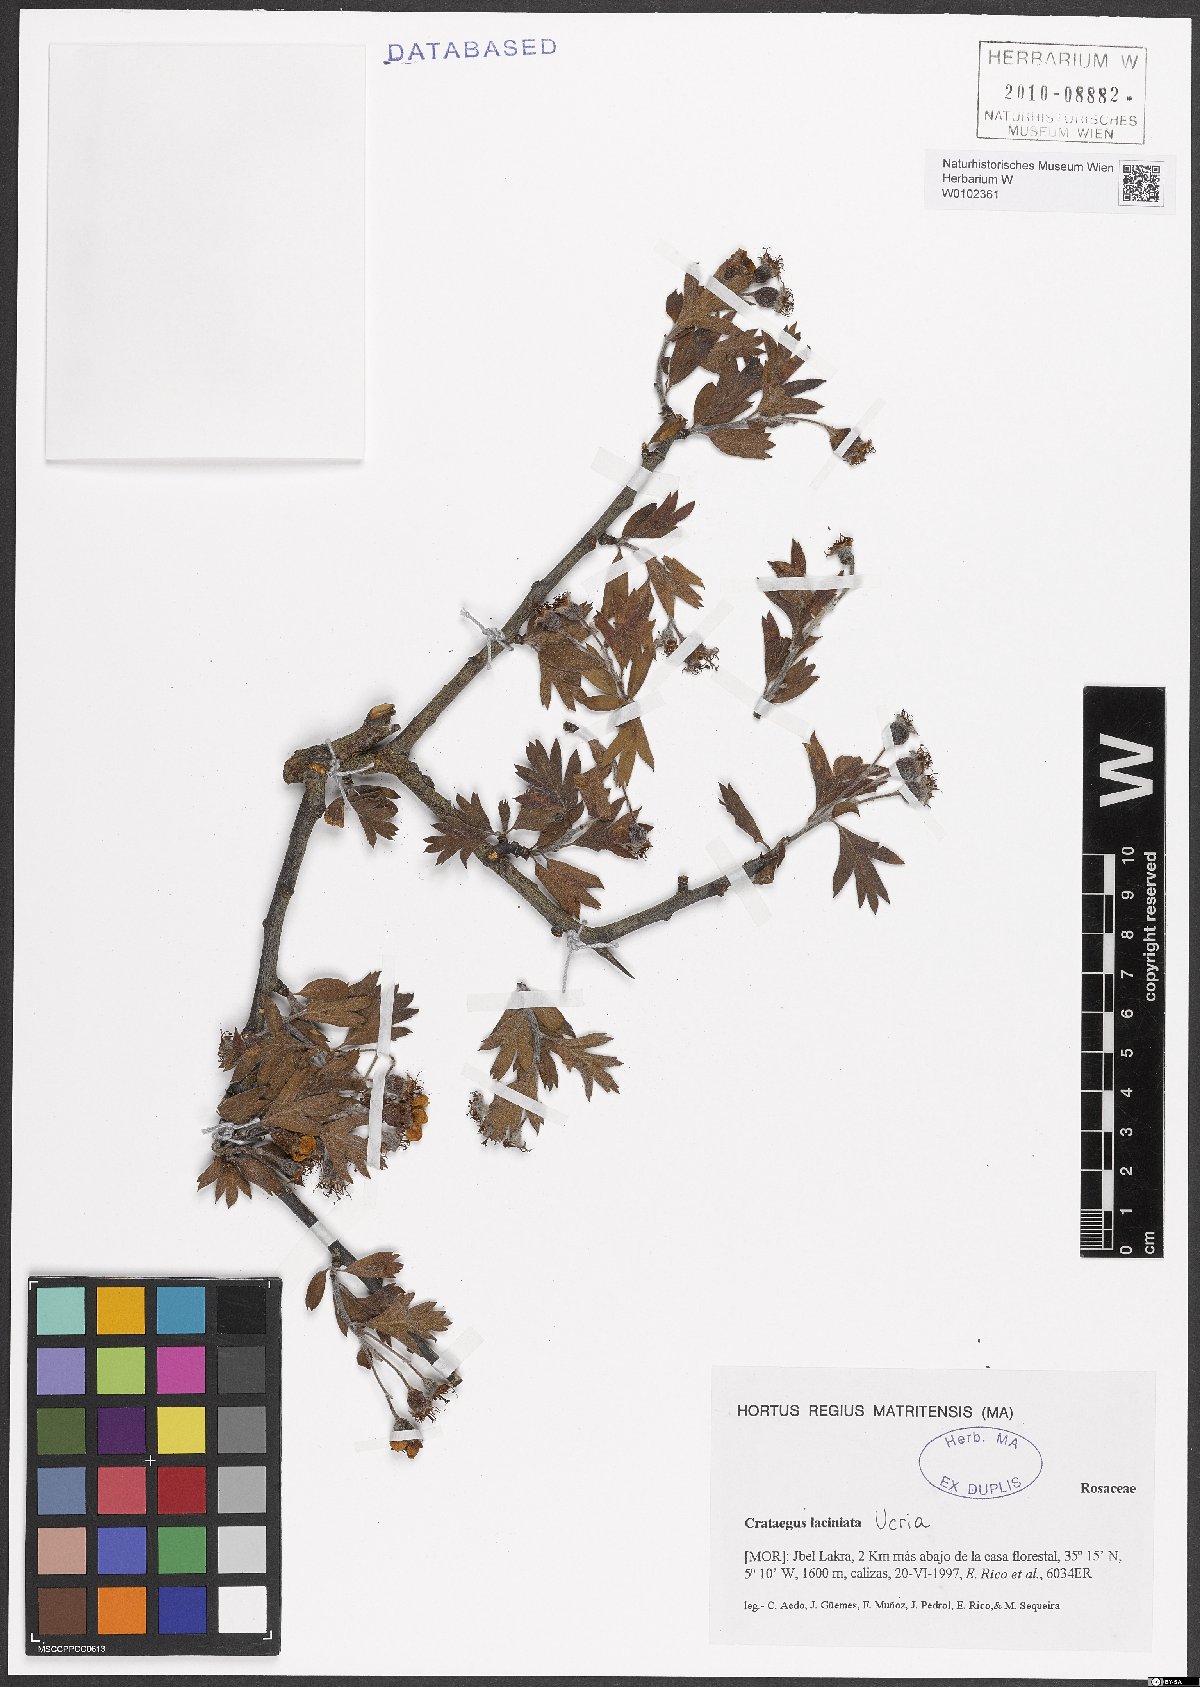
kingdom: Plantae
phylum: Tracheophyta
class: Magnoliopsida
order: Rosales
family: Rosaceae
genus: Crataegus
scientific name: Crataegus laciniata
